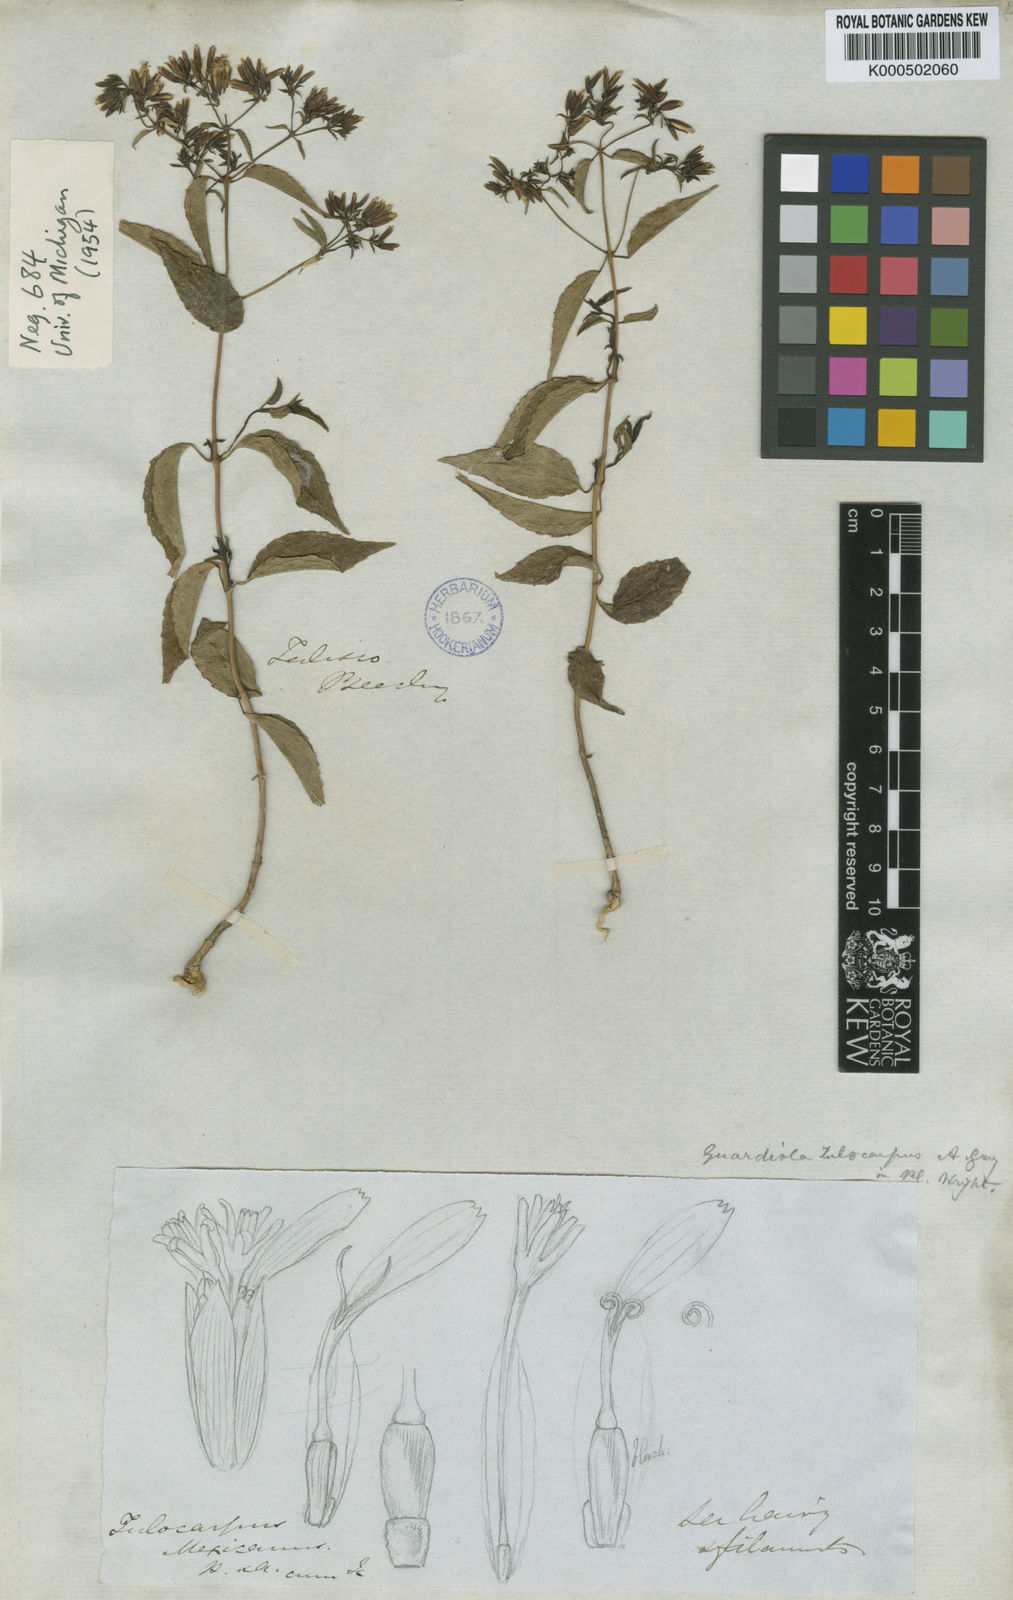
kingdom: Plantae
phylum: Tracheophyta
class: Magnoliopsida
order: Asterales
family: Asteraceae
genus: Guardiola
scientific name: Guardiola tulocarpus
